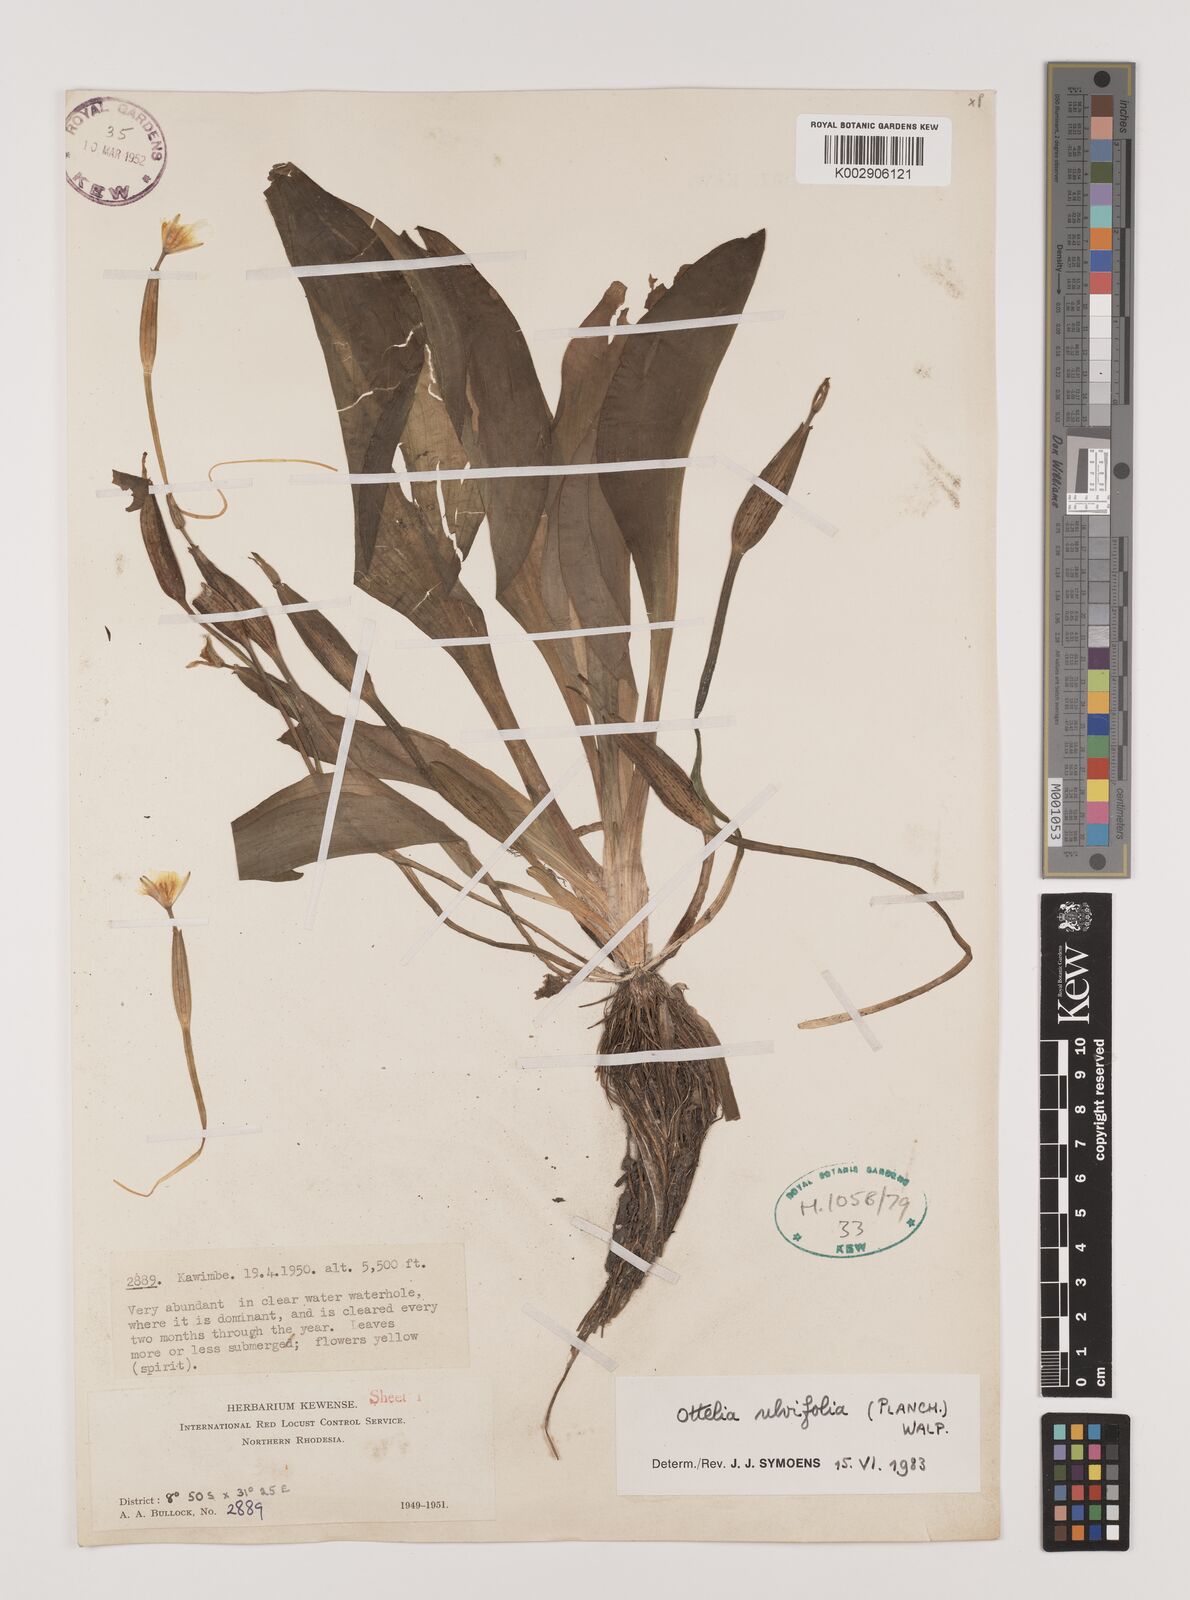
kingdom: Plantae
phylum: Tracheophyta
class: Liliopsida
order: Alismatales
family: Hydrocharitaceae
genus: Ottelia
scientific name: Ottelia ulvifolia
